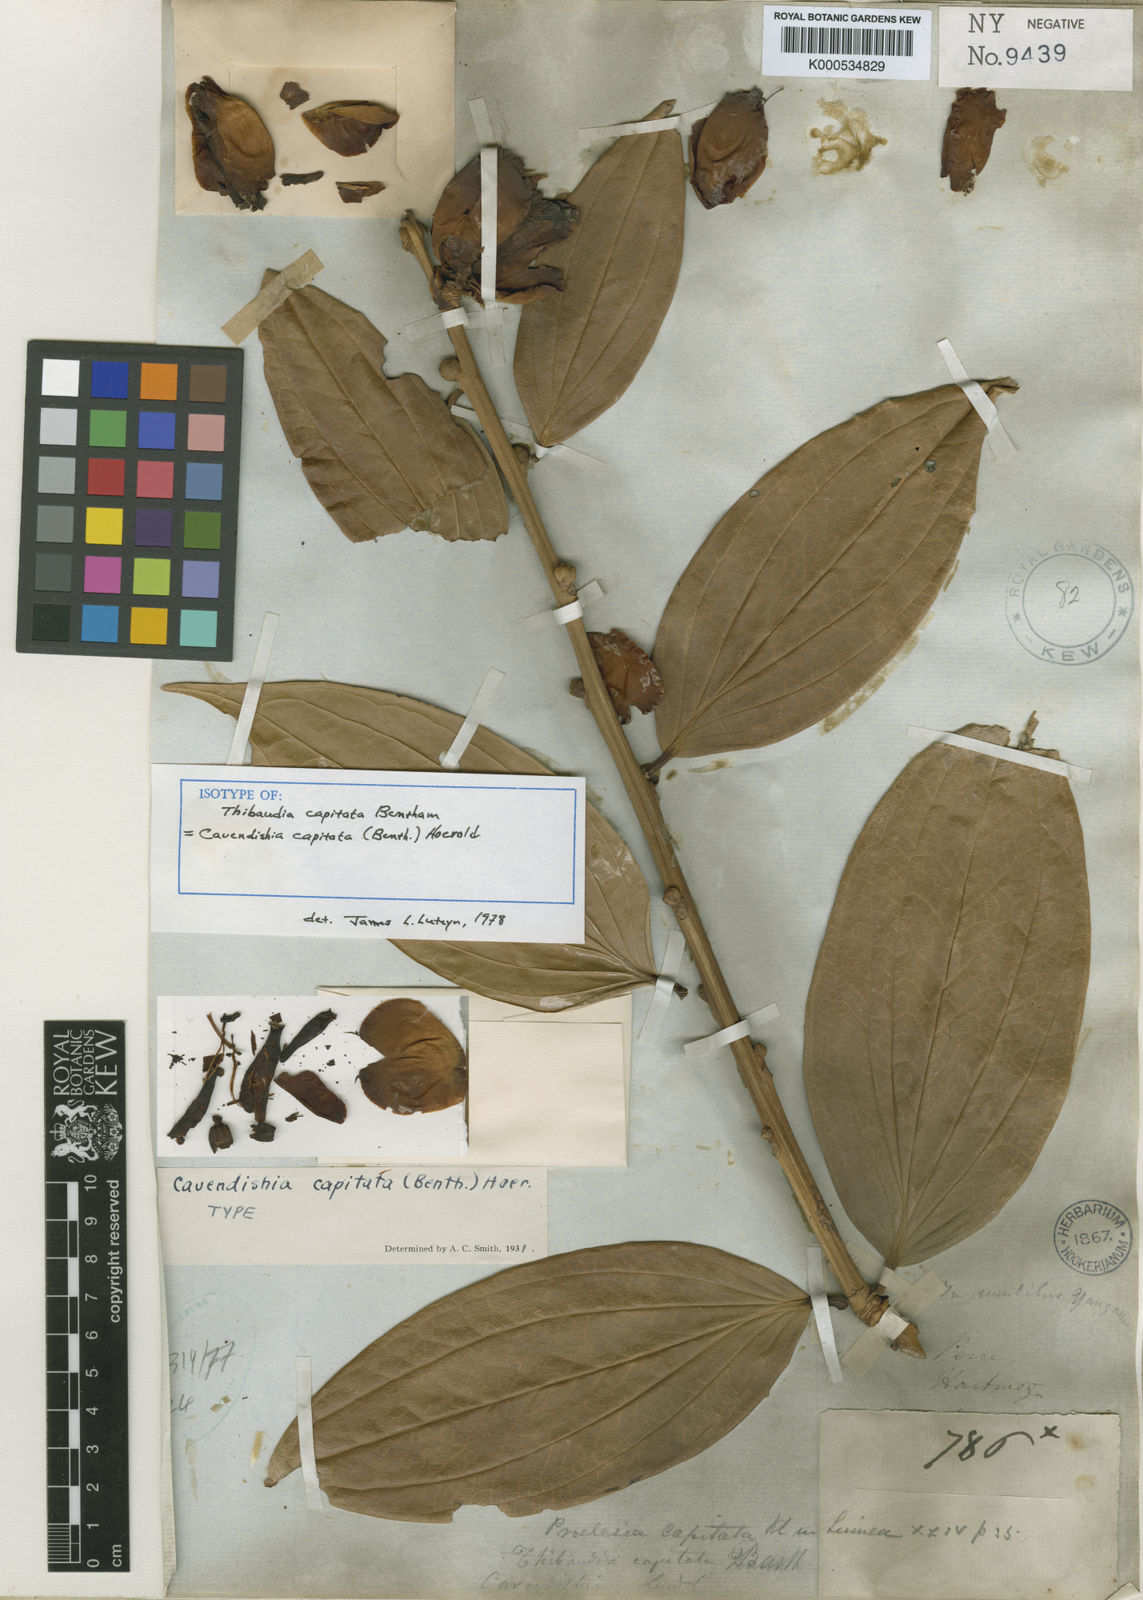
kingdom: Plantae
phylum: Tracheophyta
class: Magnoliopsida
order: Ericales
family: Ericaceae
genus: Cavendishia
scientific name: Cavendishia nobilis
